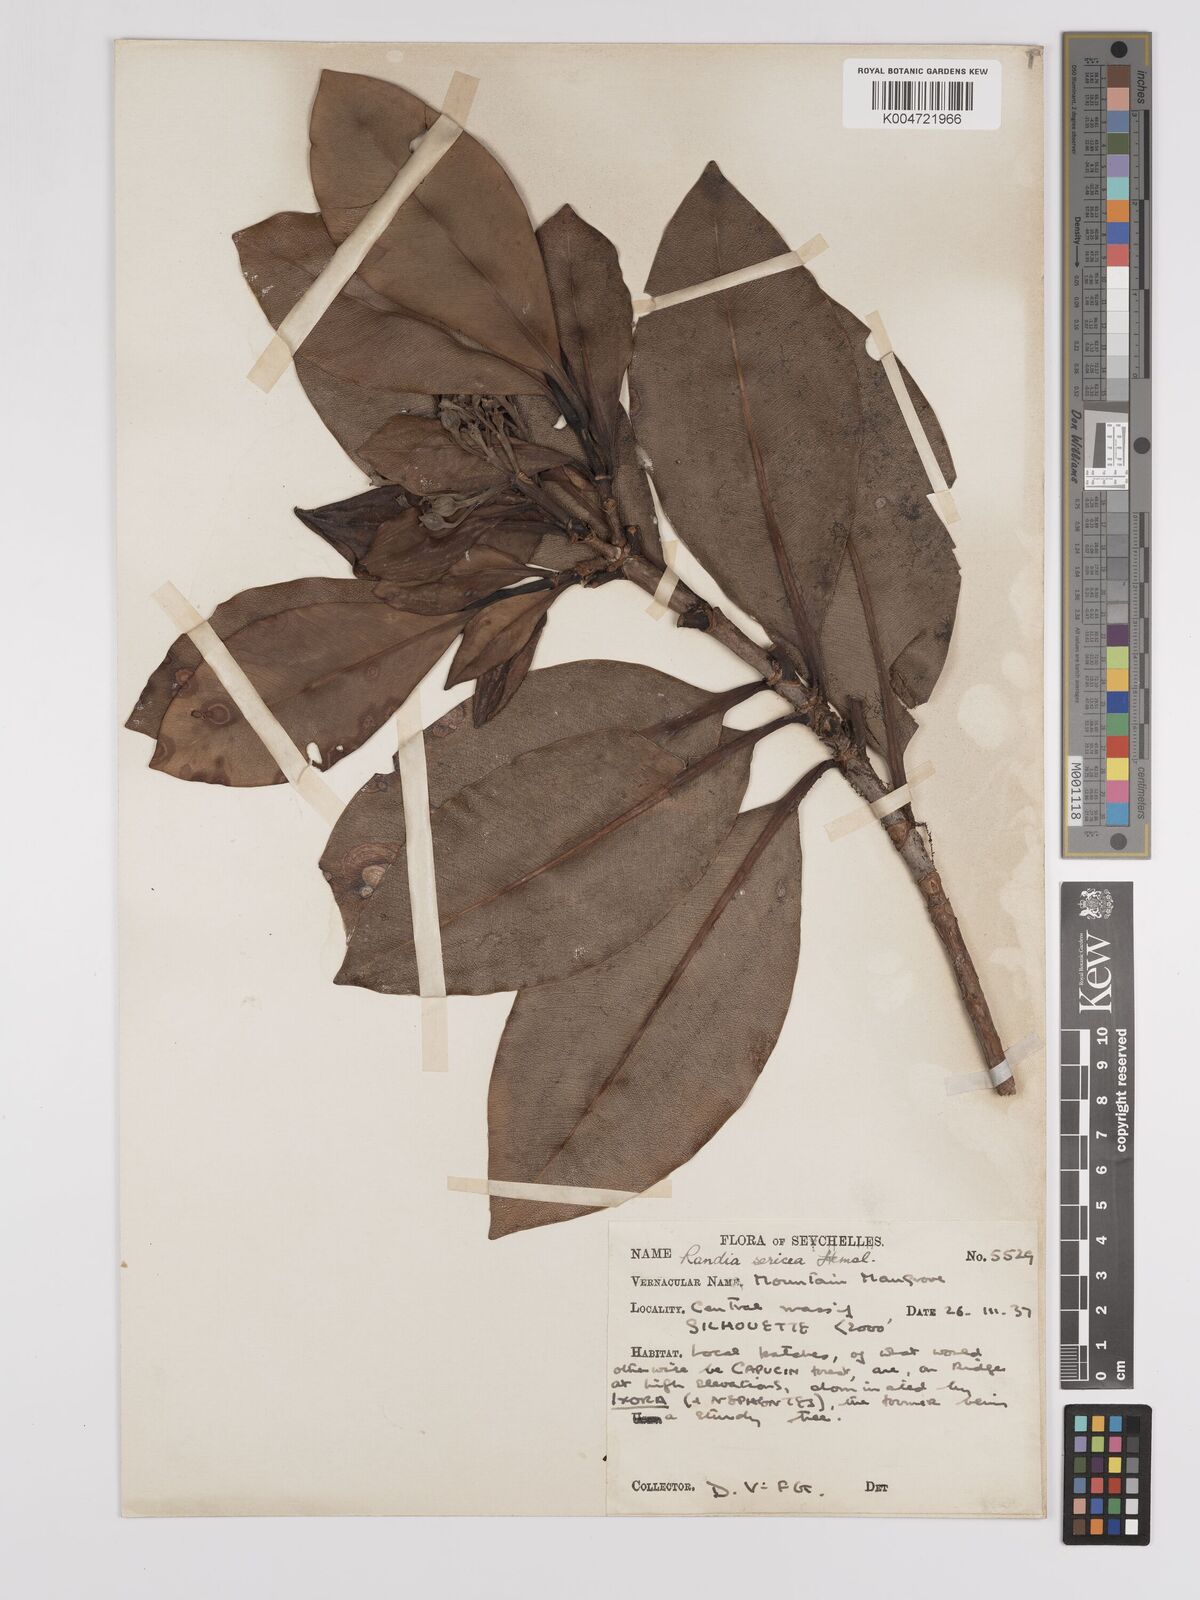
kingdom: Plantae
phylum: Tracheophyta
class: Magnoliopsida
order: Gentianales
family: Rubiaceae
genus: Glionnetia
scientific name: Glionnetia sericea
